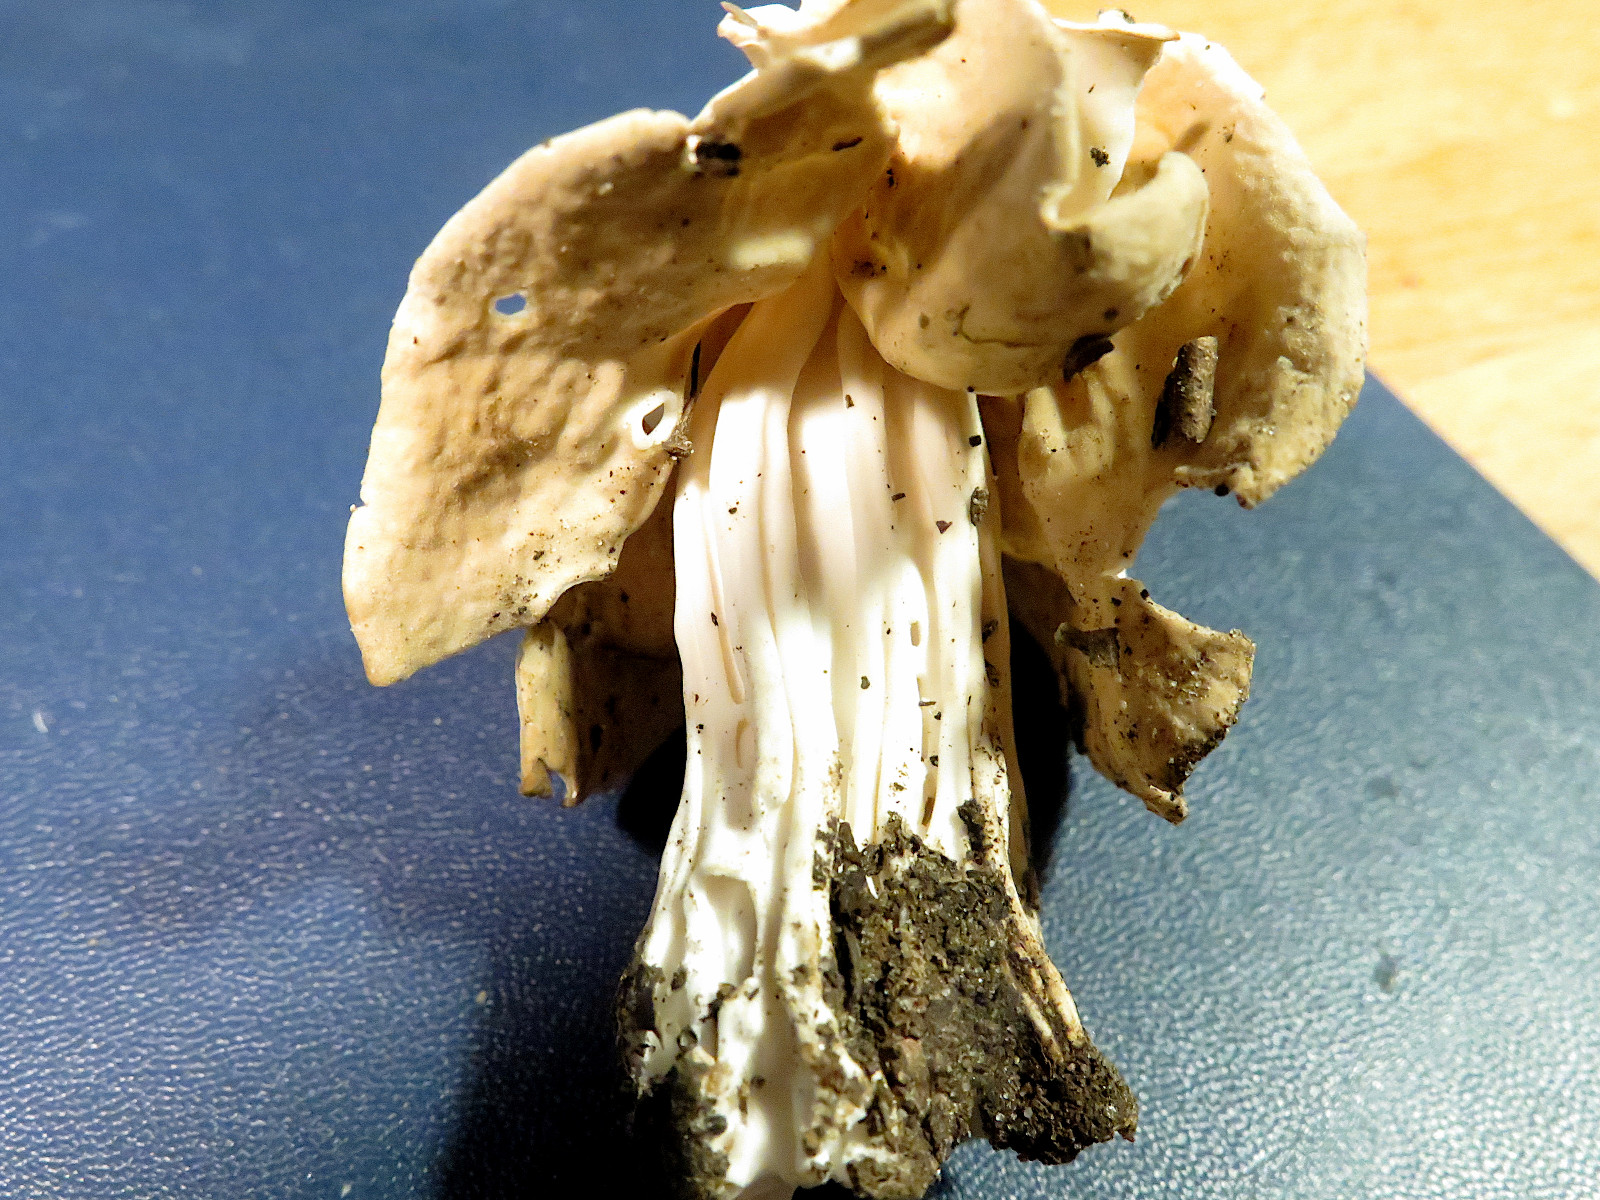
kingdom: Fungi
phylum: Ascomycota
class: Pezizomycetes
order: Pezizales
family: Helvellaceae
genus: Helvella
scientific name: Helvella crispa
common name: kruset foldhat
